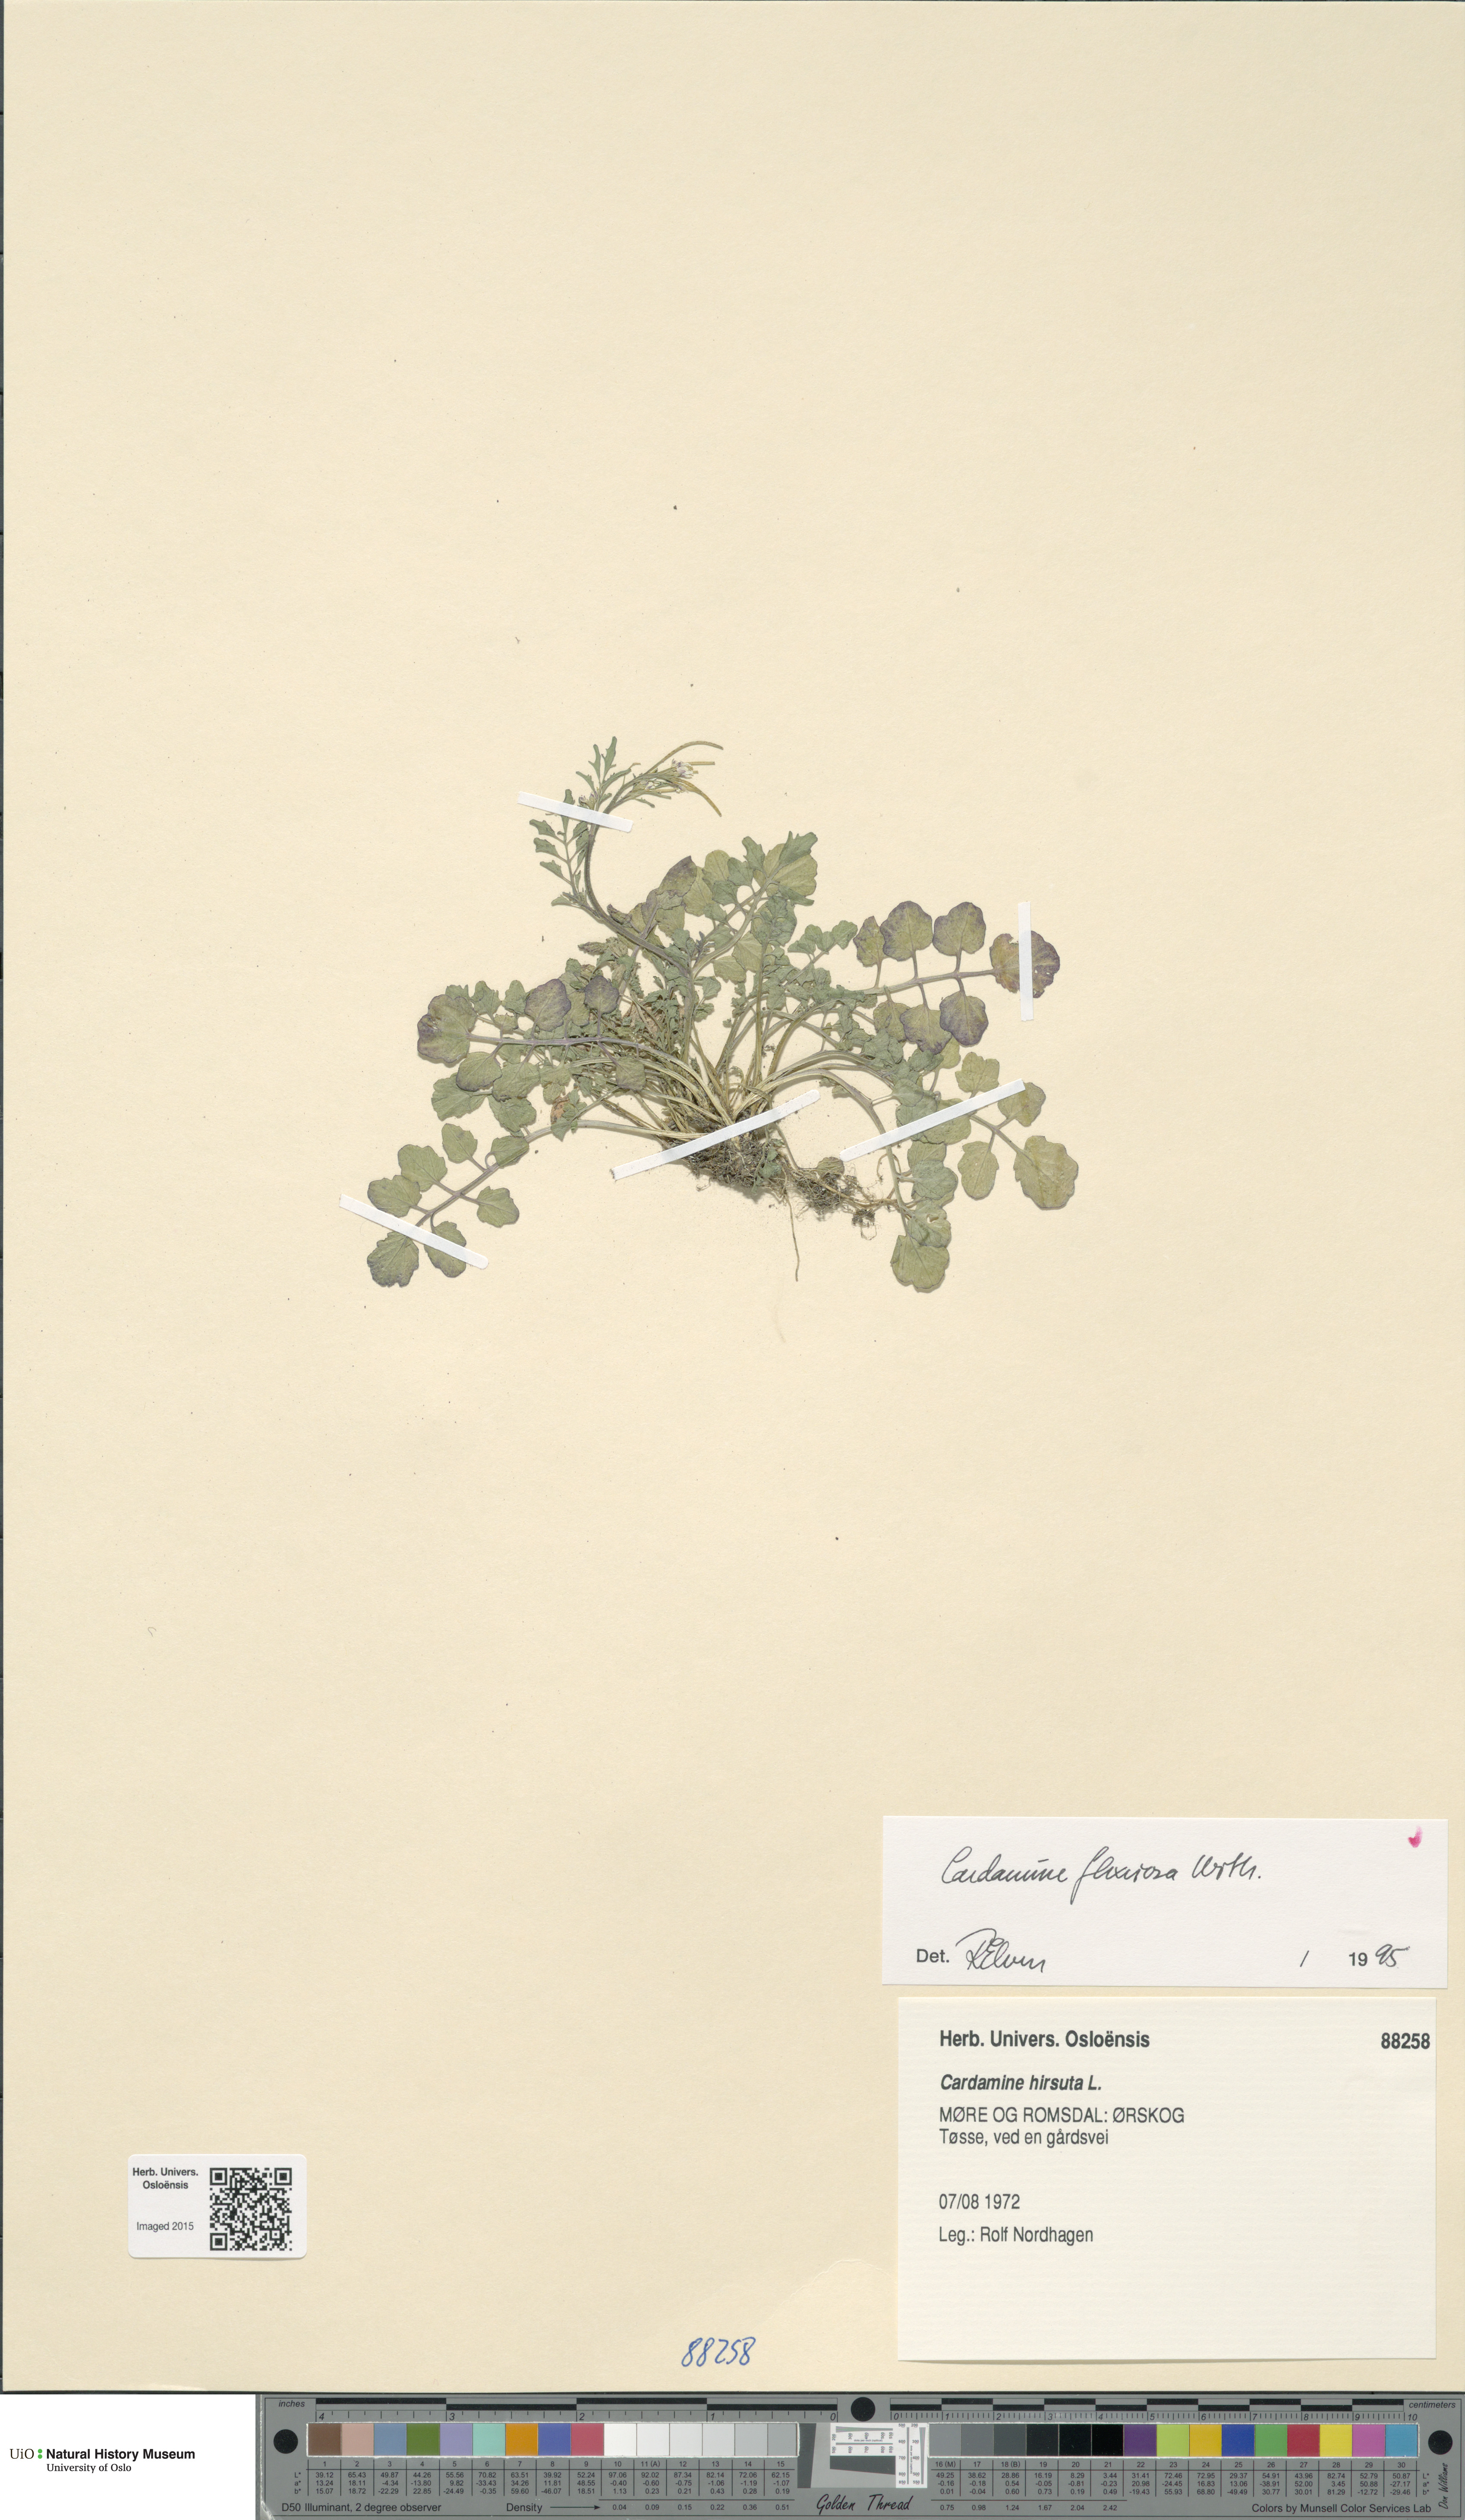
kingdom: Plantae
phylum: Tracheophyta
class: Magnoliopsida
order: Brassicales
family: Brassicaceae
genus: Cardamine
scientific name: Cardamine flexuosa
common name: Woodland bittercress
